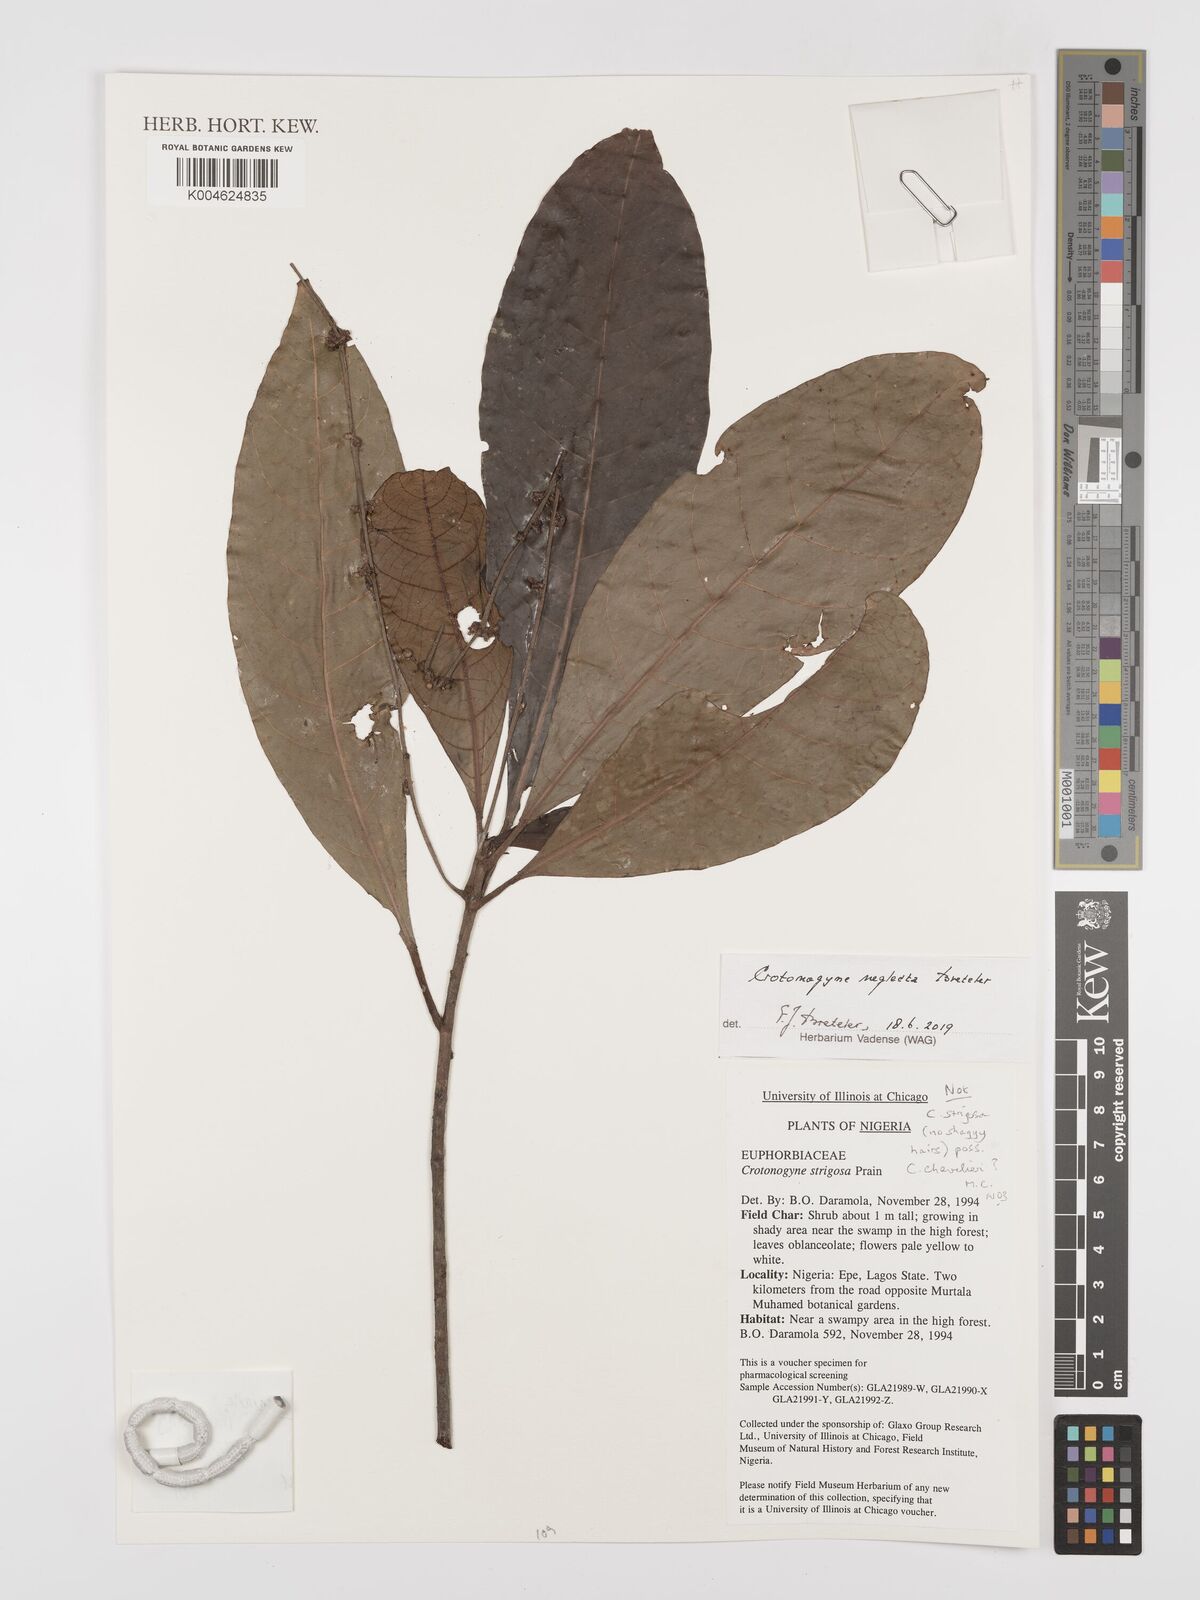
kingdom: Plantae
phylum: Tracheophyta
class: Magnoliopsida
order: Malpighiales
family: Euphorbiaceae
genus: Crotonogyne
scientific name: Crotonogyne neglecta
